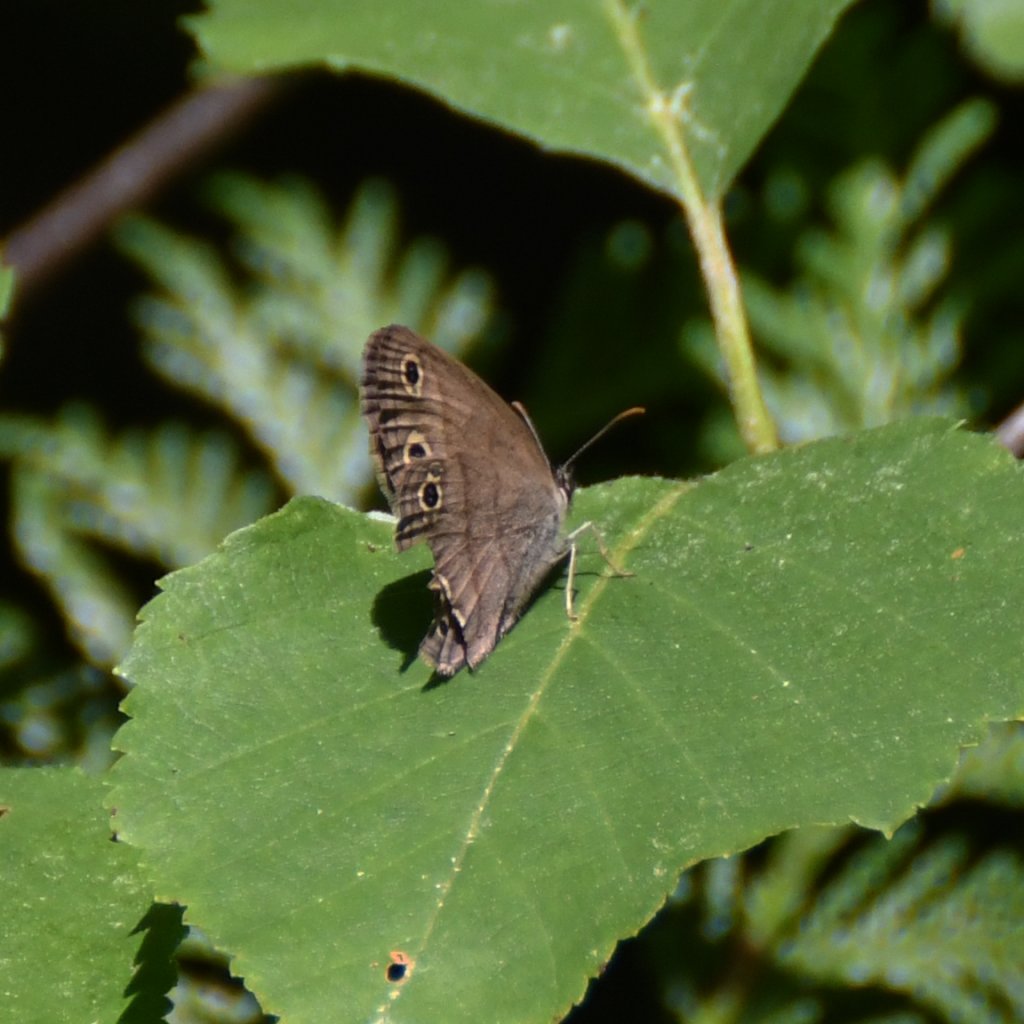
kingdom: Animalia
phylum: Arthropoda
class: Insecta
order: Lepidoptera
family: Nymphalidae
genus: Euptychia
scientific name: Euptychia cymela
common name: Little Wood Satyr
